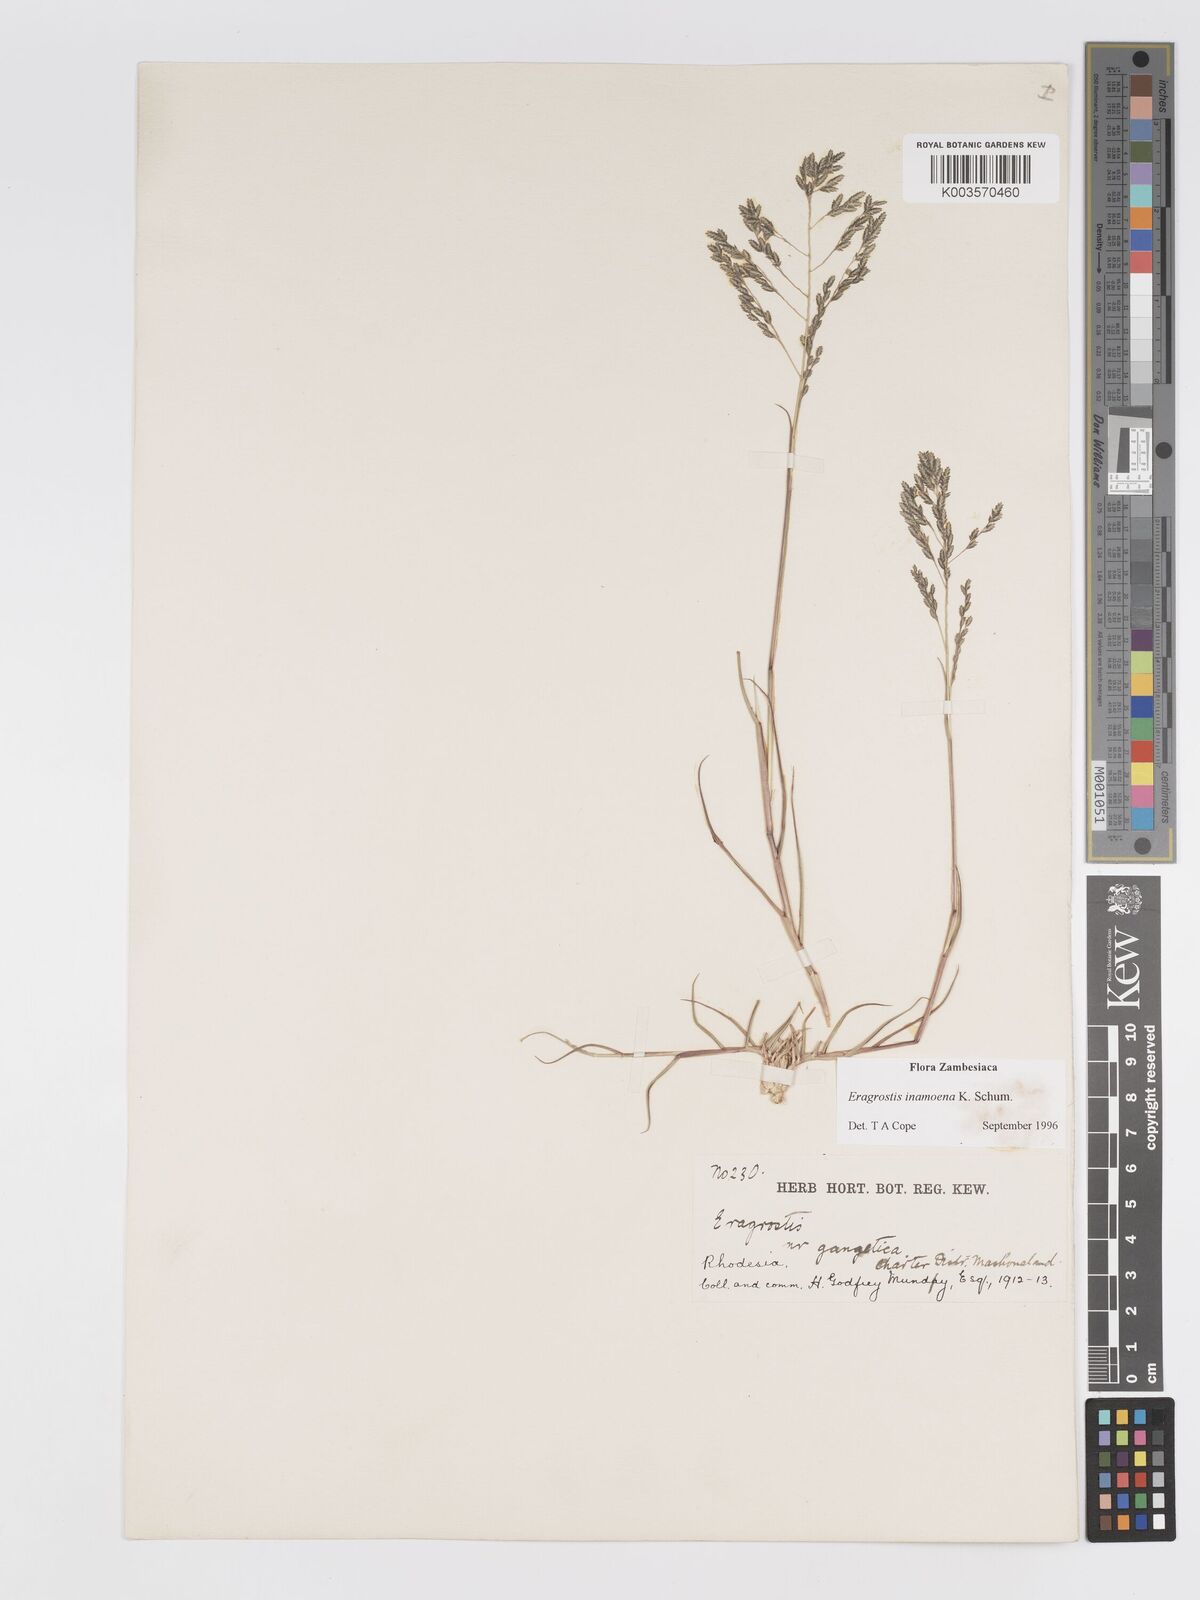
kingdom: Plantae
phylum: Tracheophyta
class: Liliopsida
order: Poales
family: Poaceae
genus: Eragrostis
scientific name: Eragrostis inamoena
